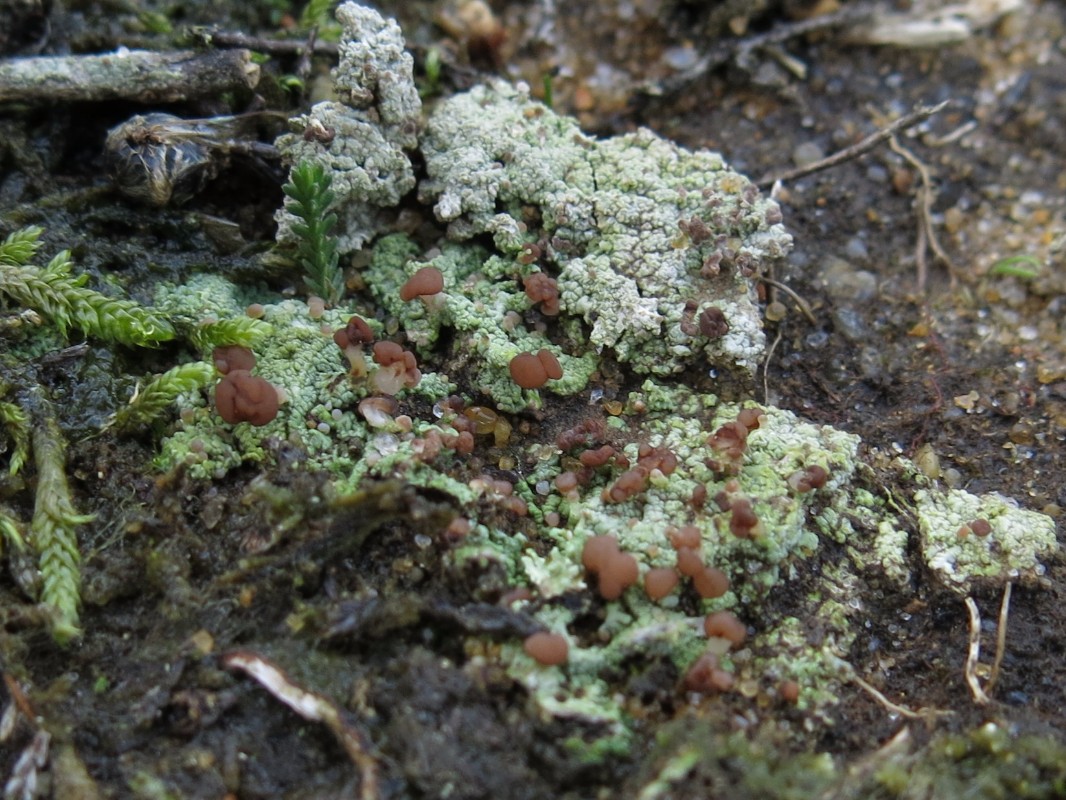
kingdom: Fungi
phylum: Ascomycota
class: Lecanoromycetes
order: Baeomycetales
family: Baeomycetaceae
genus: Baeomyces
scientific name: Baeomyces rufus
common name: rødbrun svampelav
